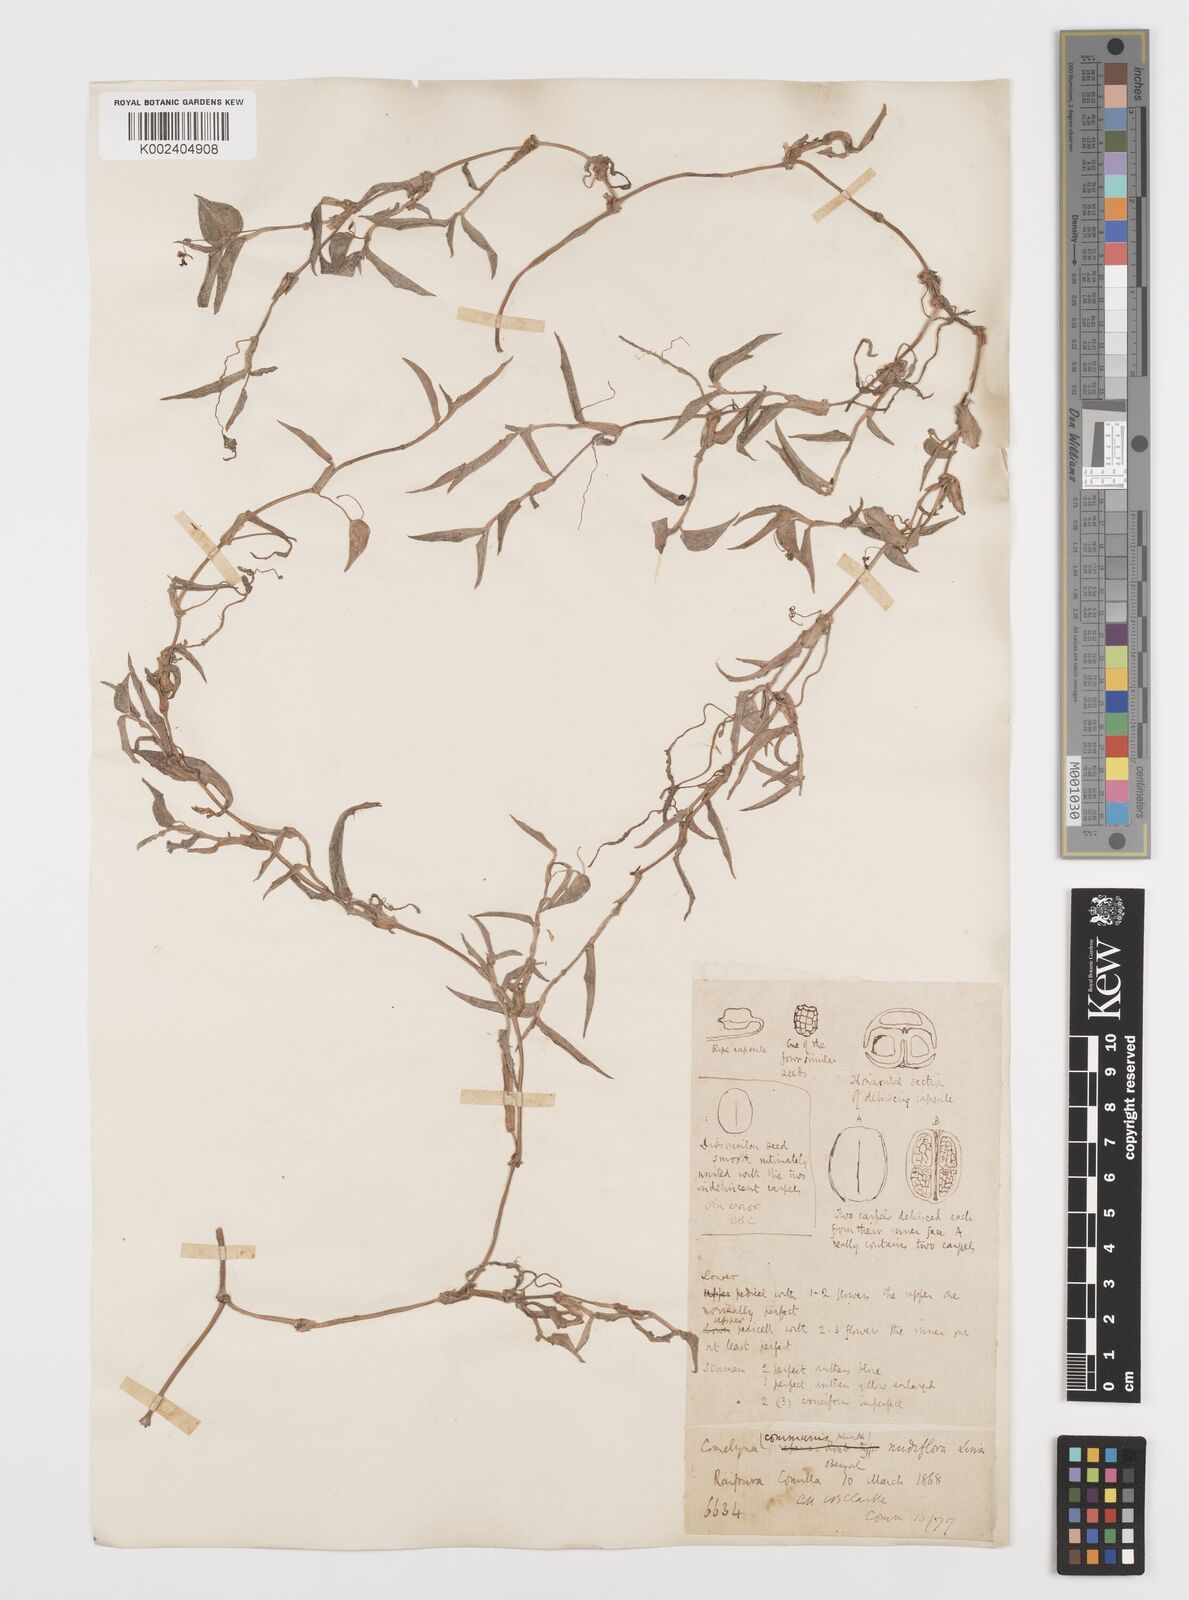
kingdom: Plantae
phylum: Tracheophyta
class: Liliopsida
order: Commelinales
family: Commelinaceae
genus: Commelina
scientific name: Commelina diffusa
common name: Climbing dayflower
